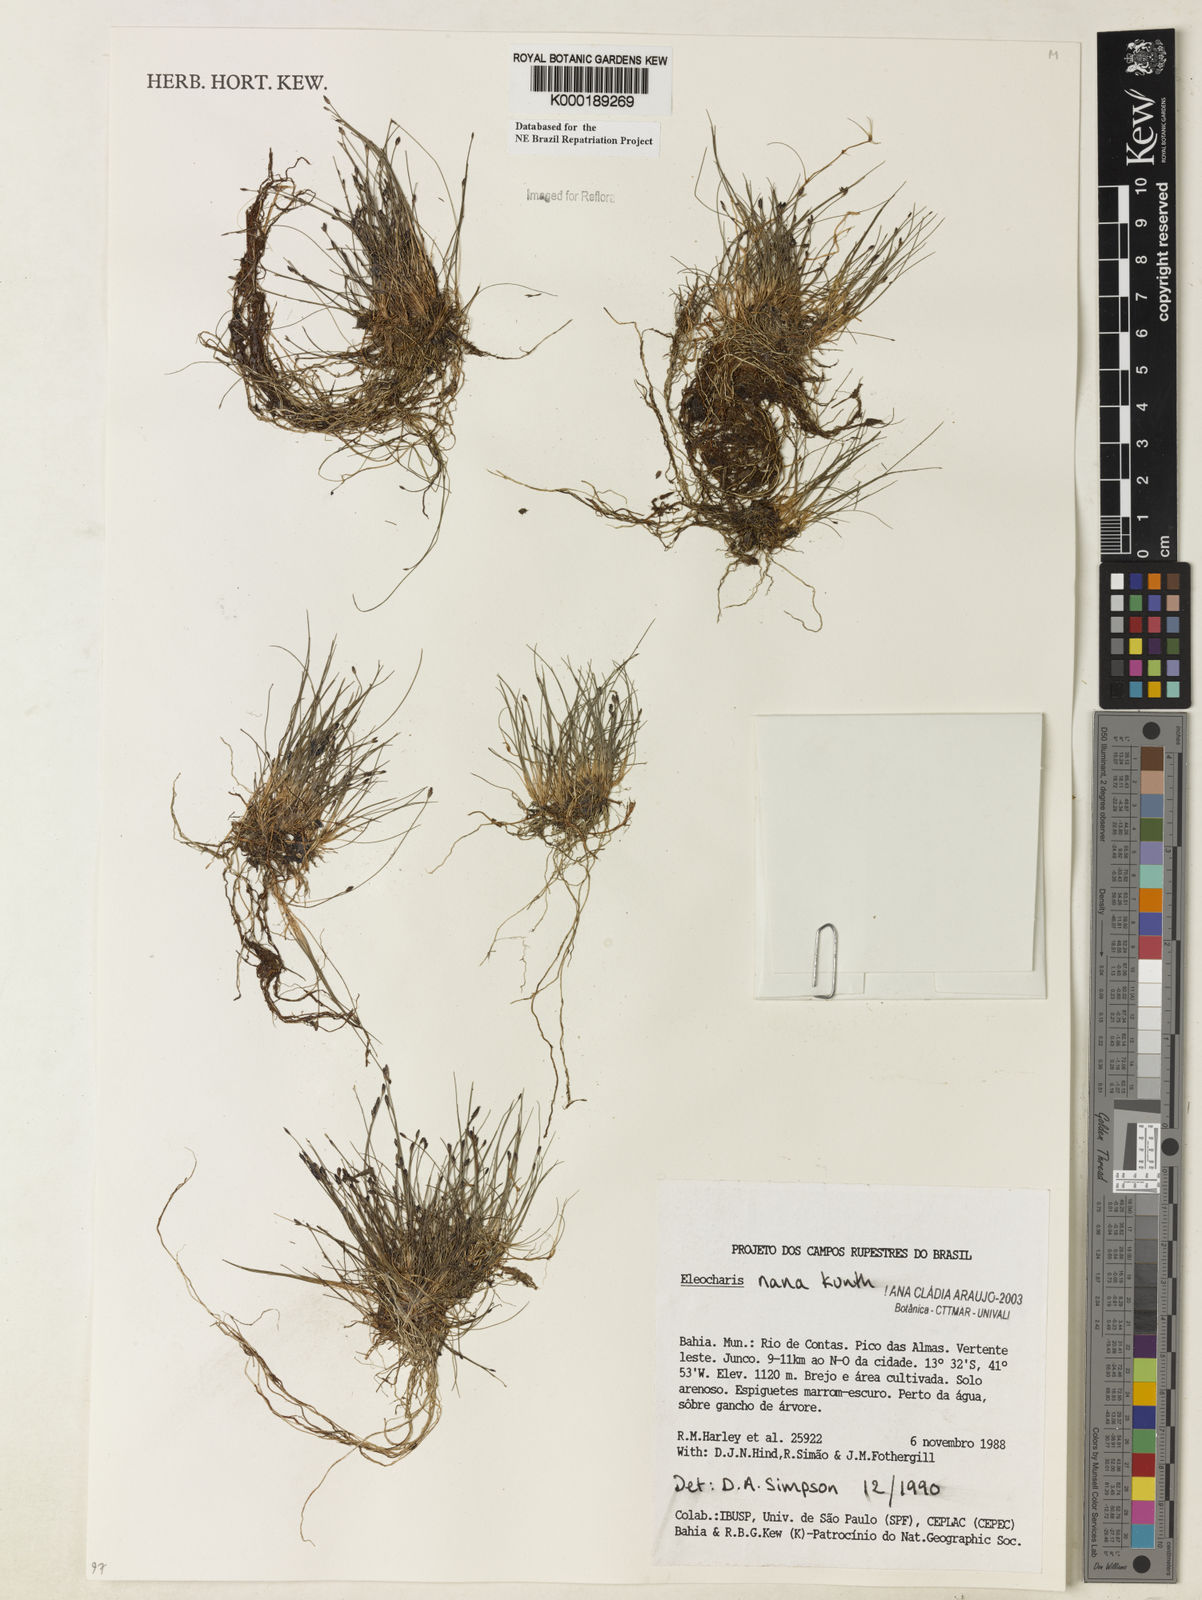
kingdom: Plantae
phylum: Tracheophyta
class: Liliopsida
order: Poales
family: Cyperaceae
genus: Eleocharis
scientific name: Eleocharis nana
